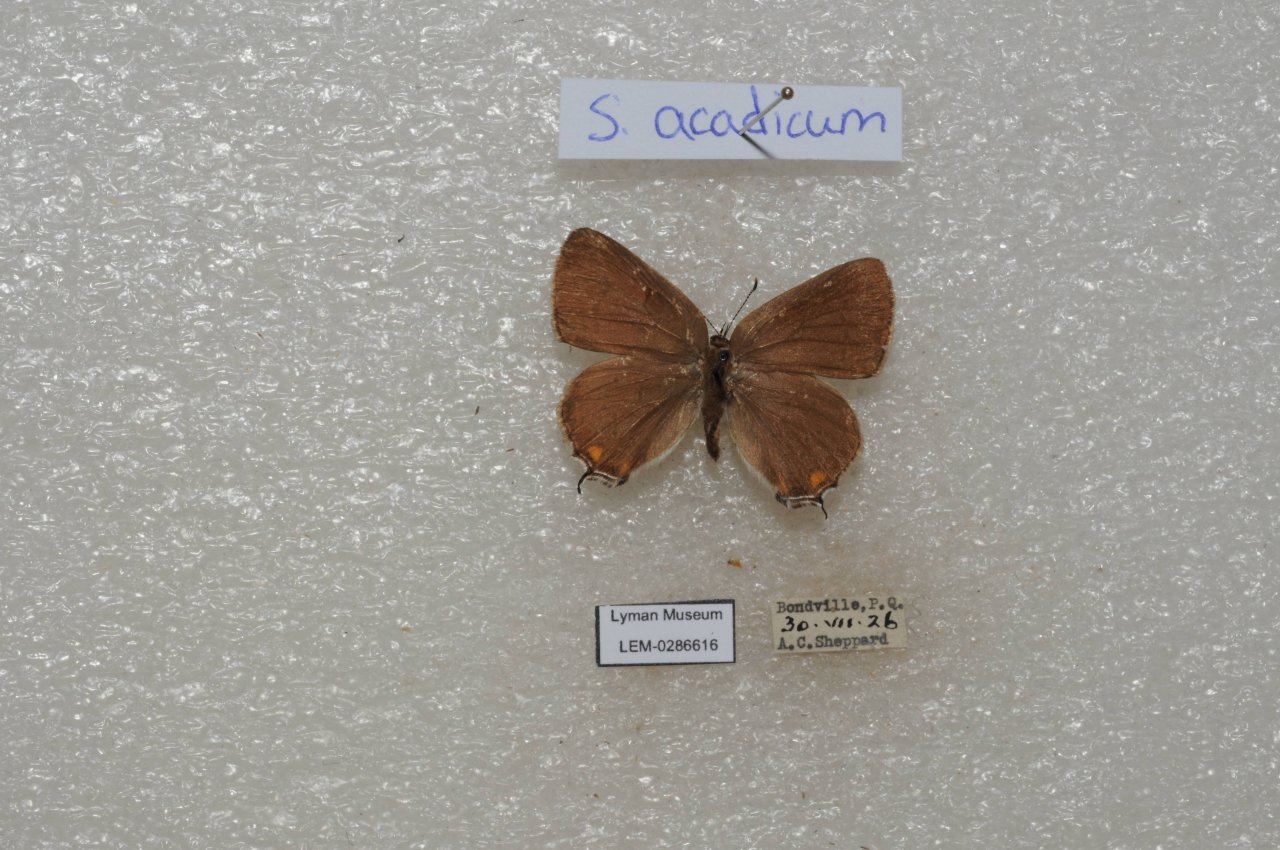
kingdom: Animalia
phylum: Arthropoda
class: Insecta
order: Lepidoptera
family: Lycaenidae
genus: Strymon
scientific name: Strymon acadica
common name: Acadian Hairstreak
